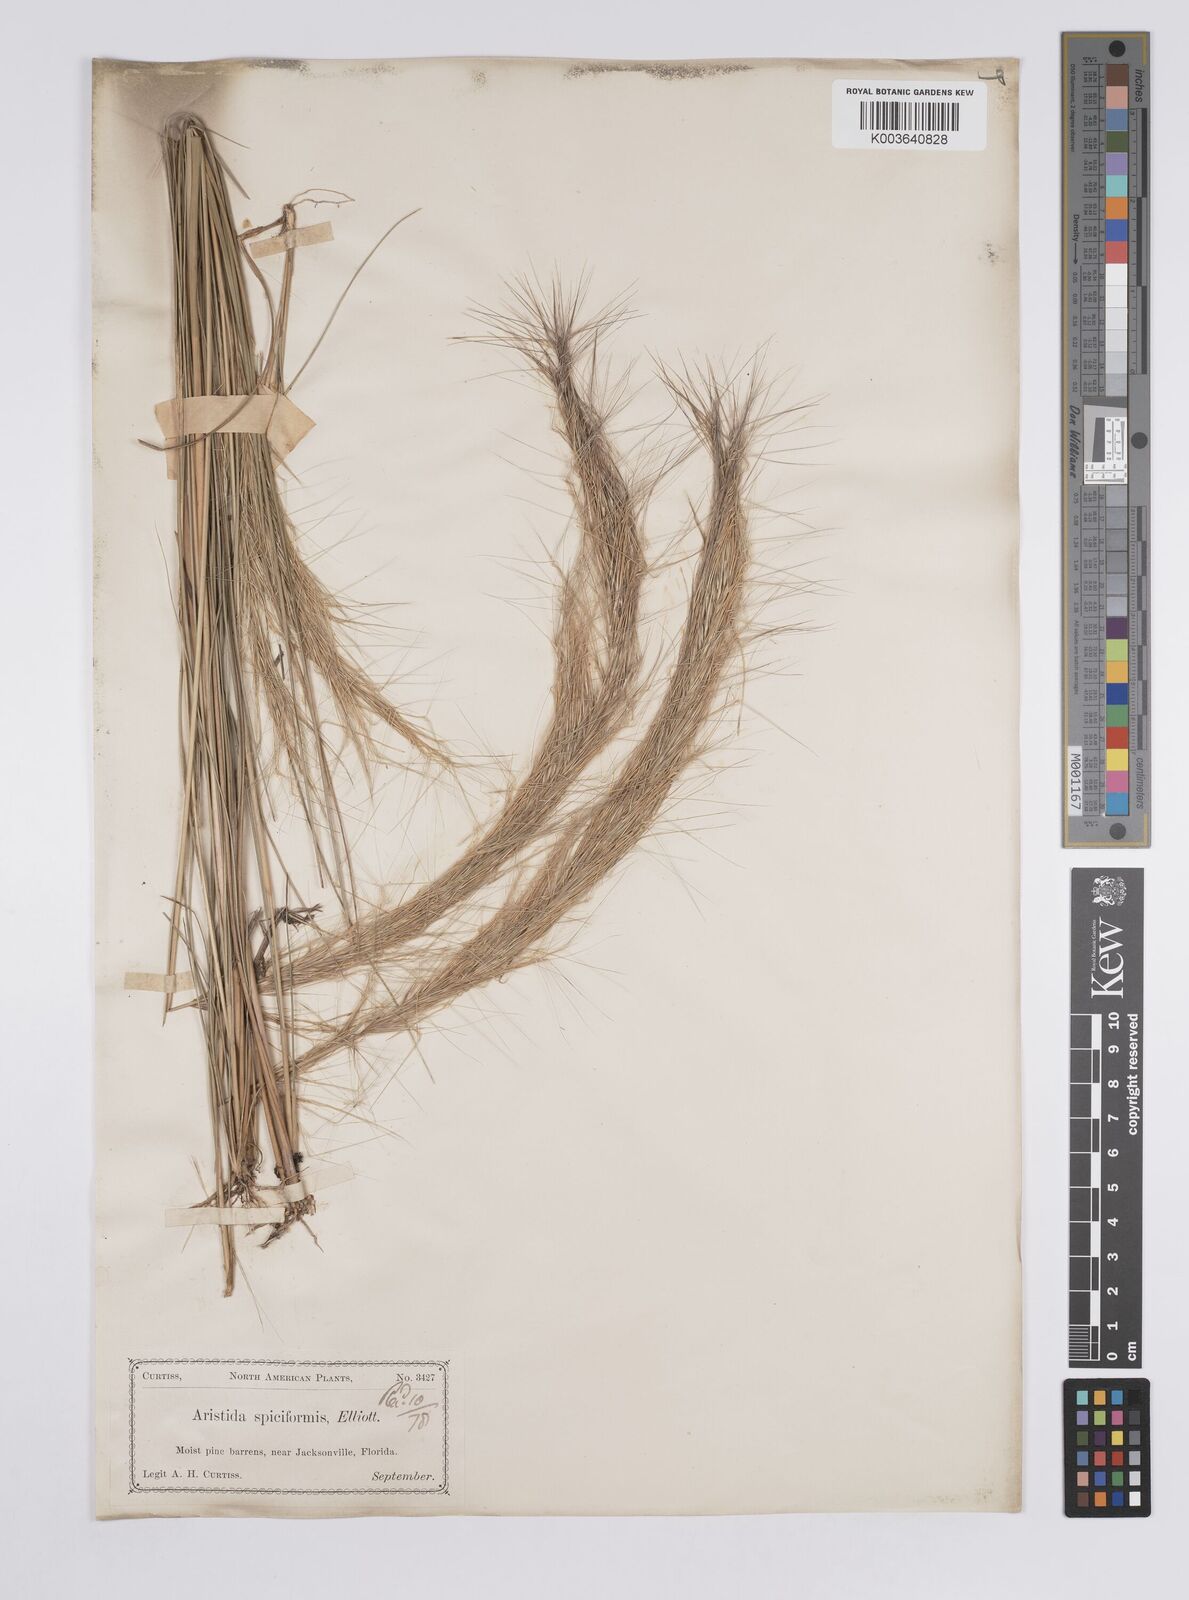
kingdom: Plantae
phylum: Tracheophyta
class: Liliopsida
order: Poales
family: Poaceae
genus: Aristida
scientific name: Aristida spiciformis
